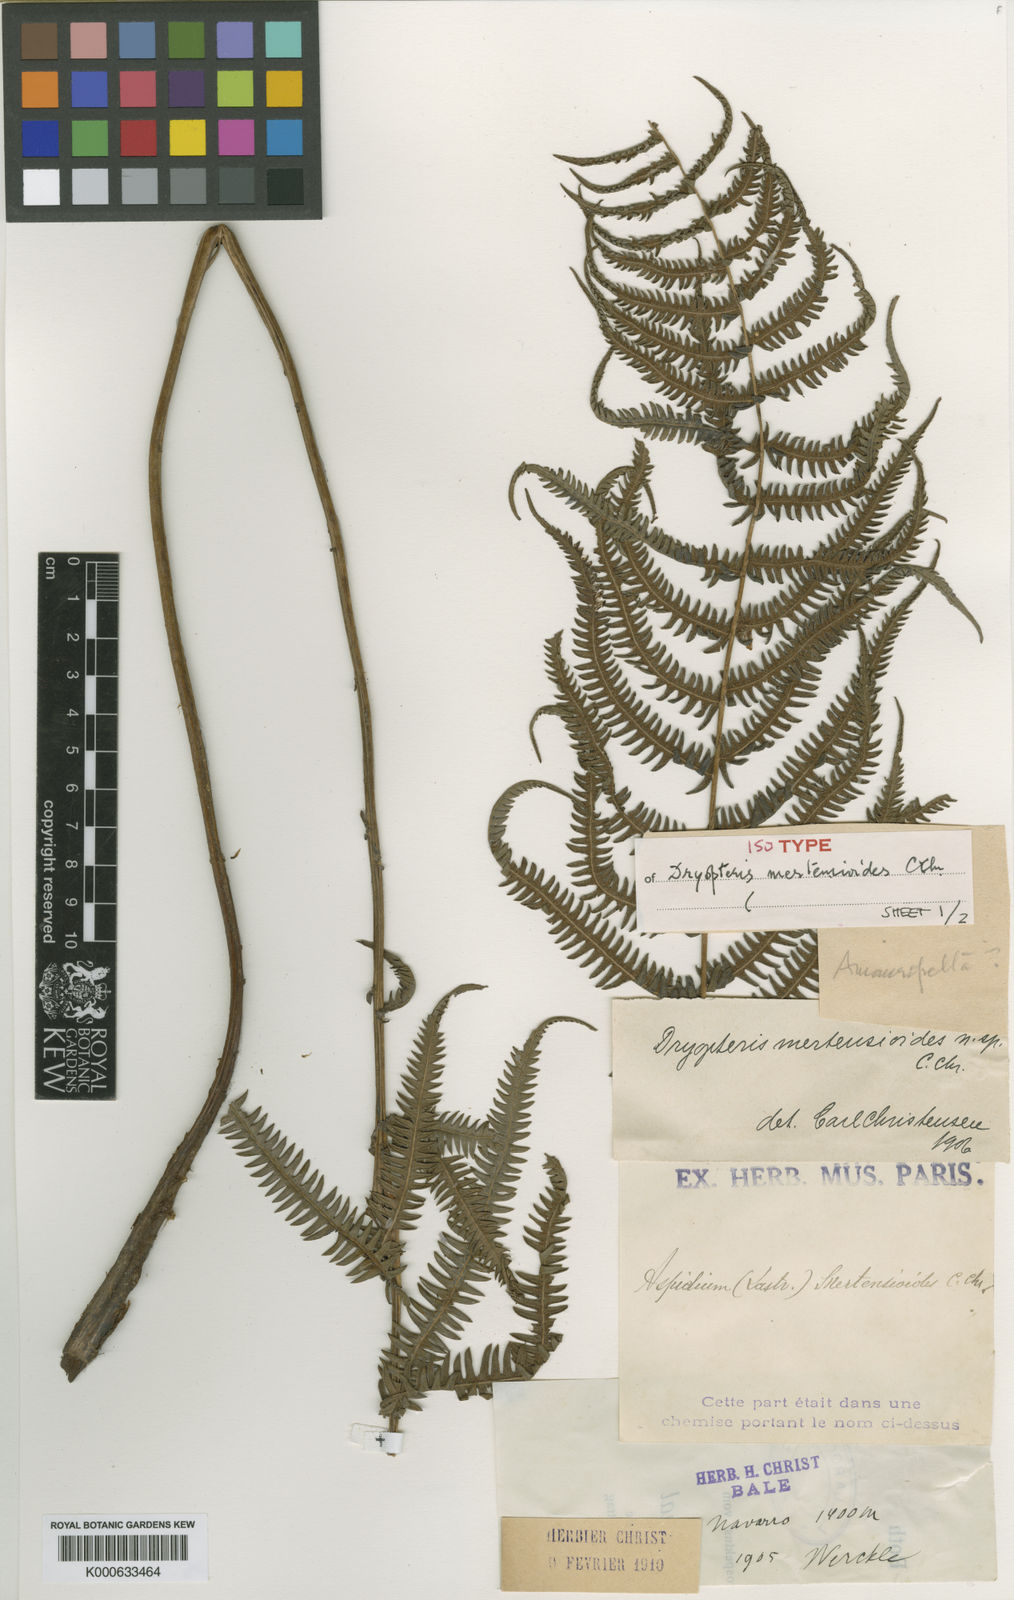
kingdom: Plantae
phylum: Tracheophyta
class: Polypodiopsida
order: Polypodiales
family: Thelypteridaceae
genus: Amauropelta
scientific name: Amauropelta mertensioides
